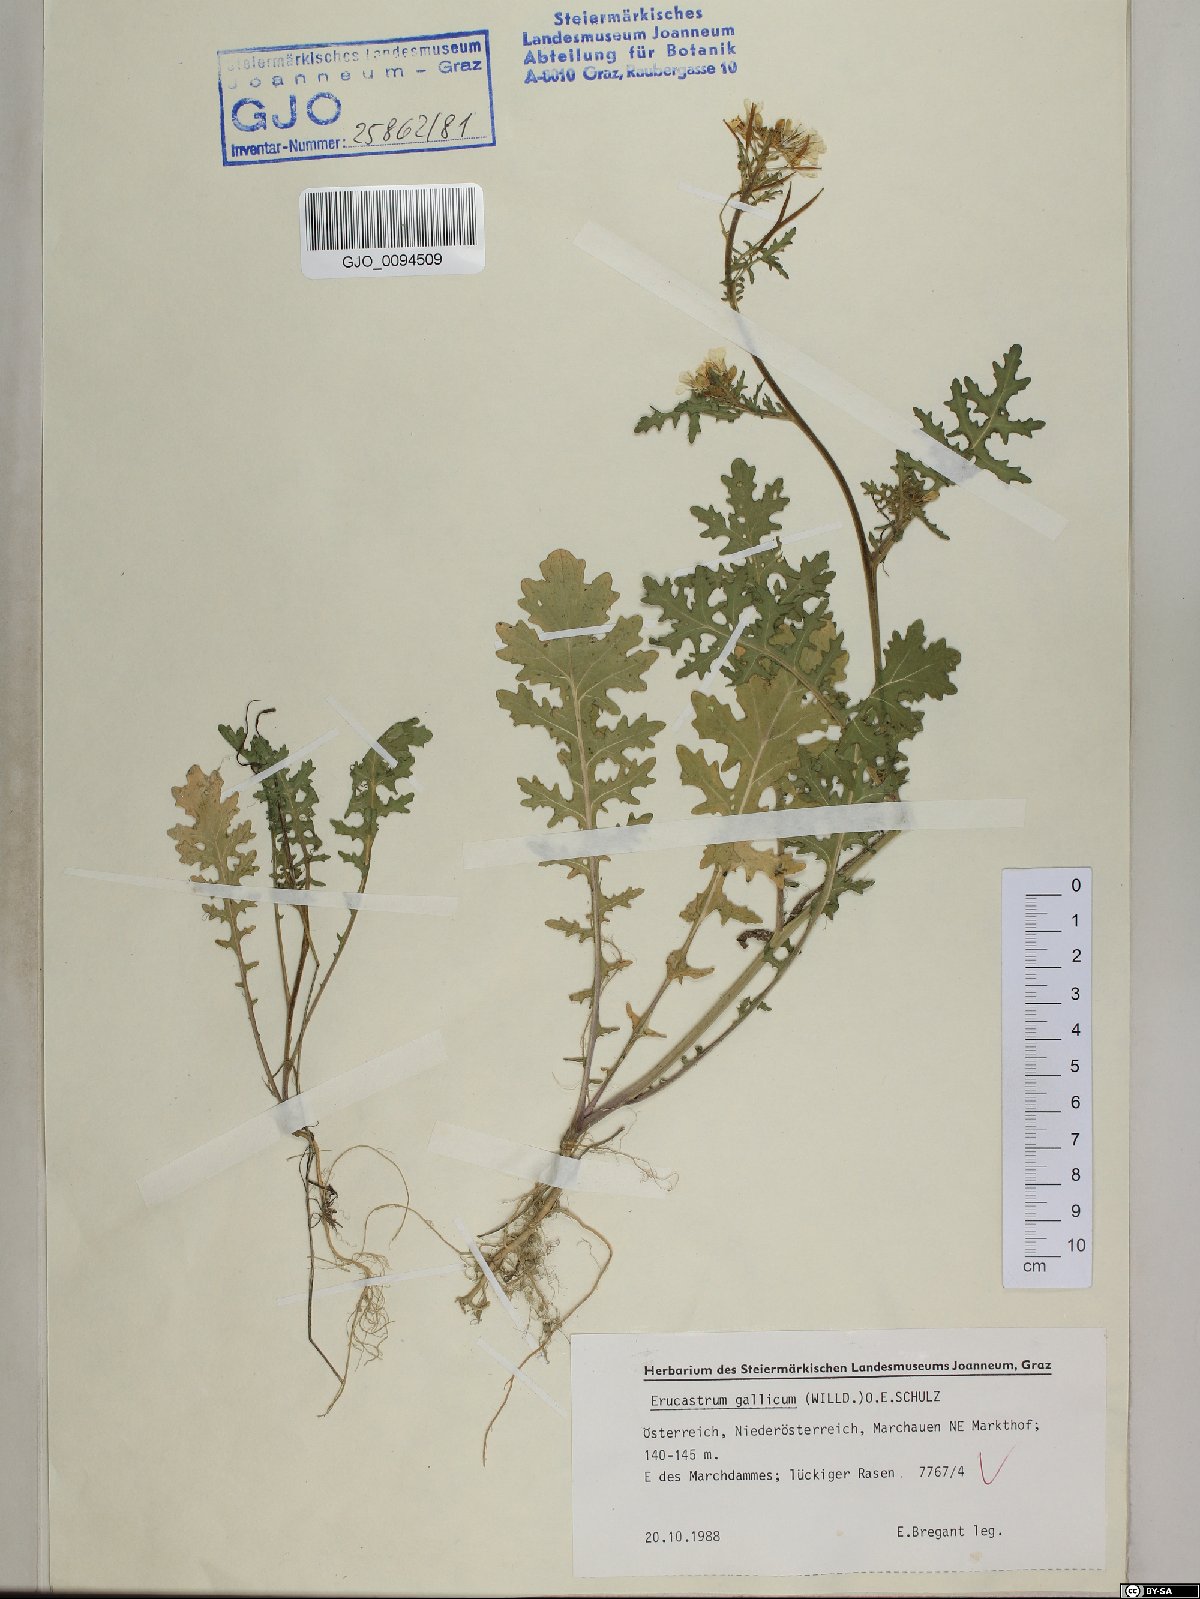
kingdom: Plantae
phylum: Tracheophyta
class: Magnoliopsida
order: Brassicales
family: Brassicaceae
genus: Erucastrum
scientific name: Erucastrum gallicum
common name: Hairy rocket
